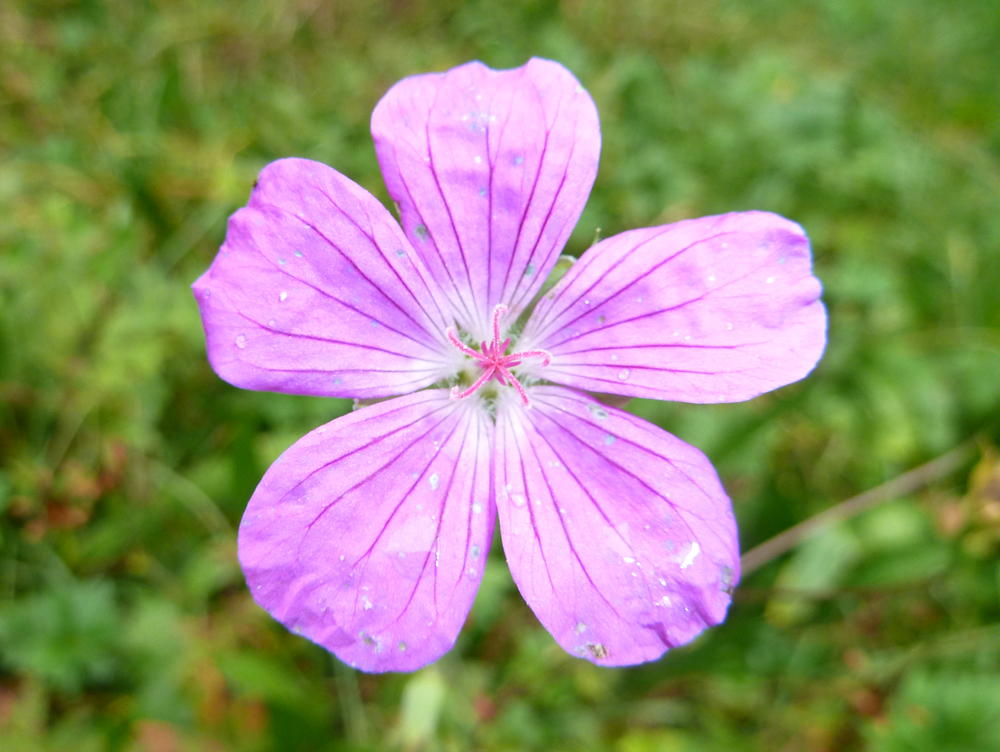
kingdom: Plantae
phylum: Tracheophyta
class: Magnoliopsida
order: Geraniales
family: Geraniaceae
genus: Geranium
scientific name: Geranium palustre
